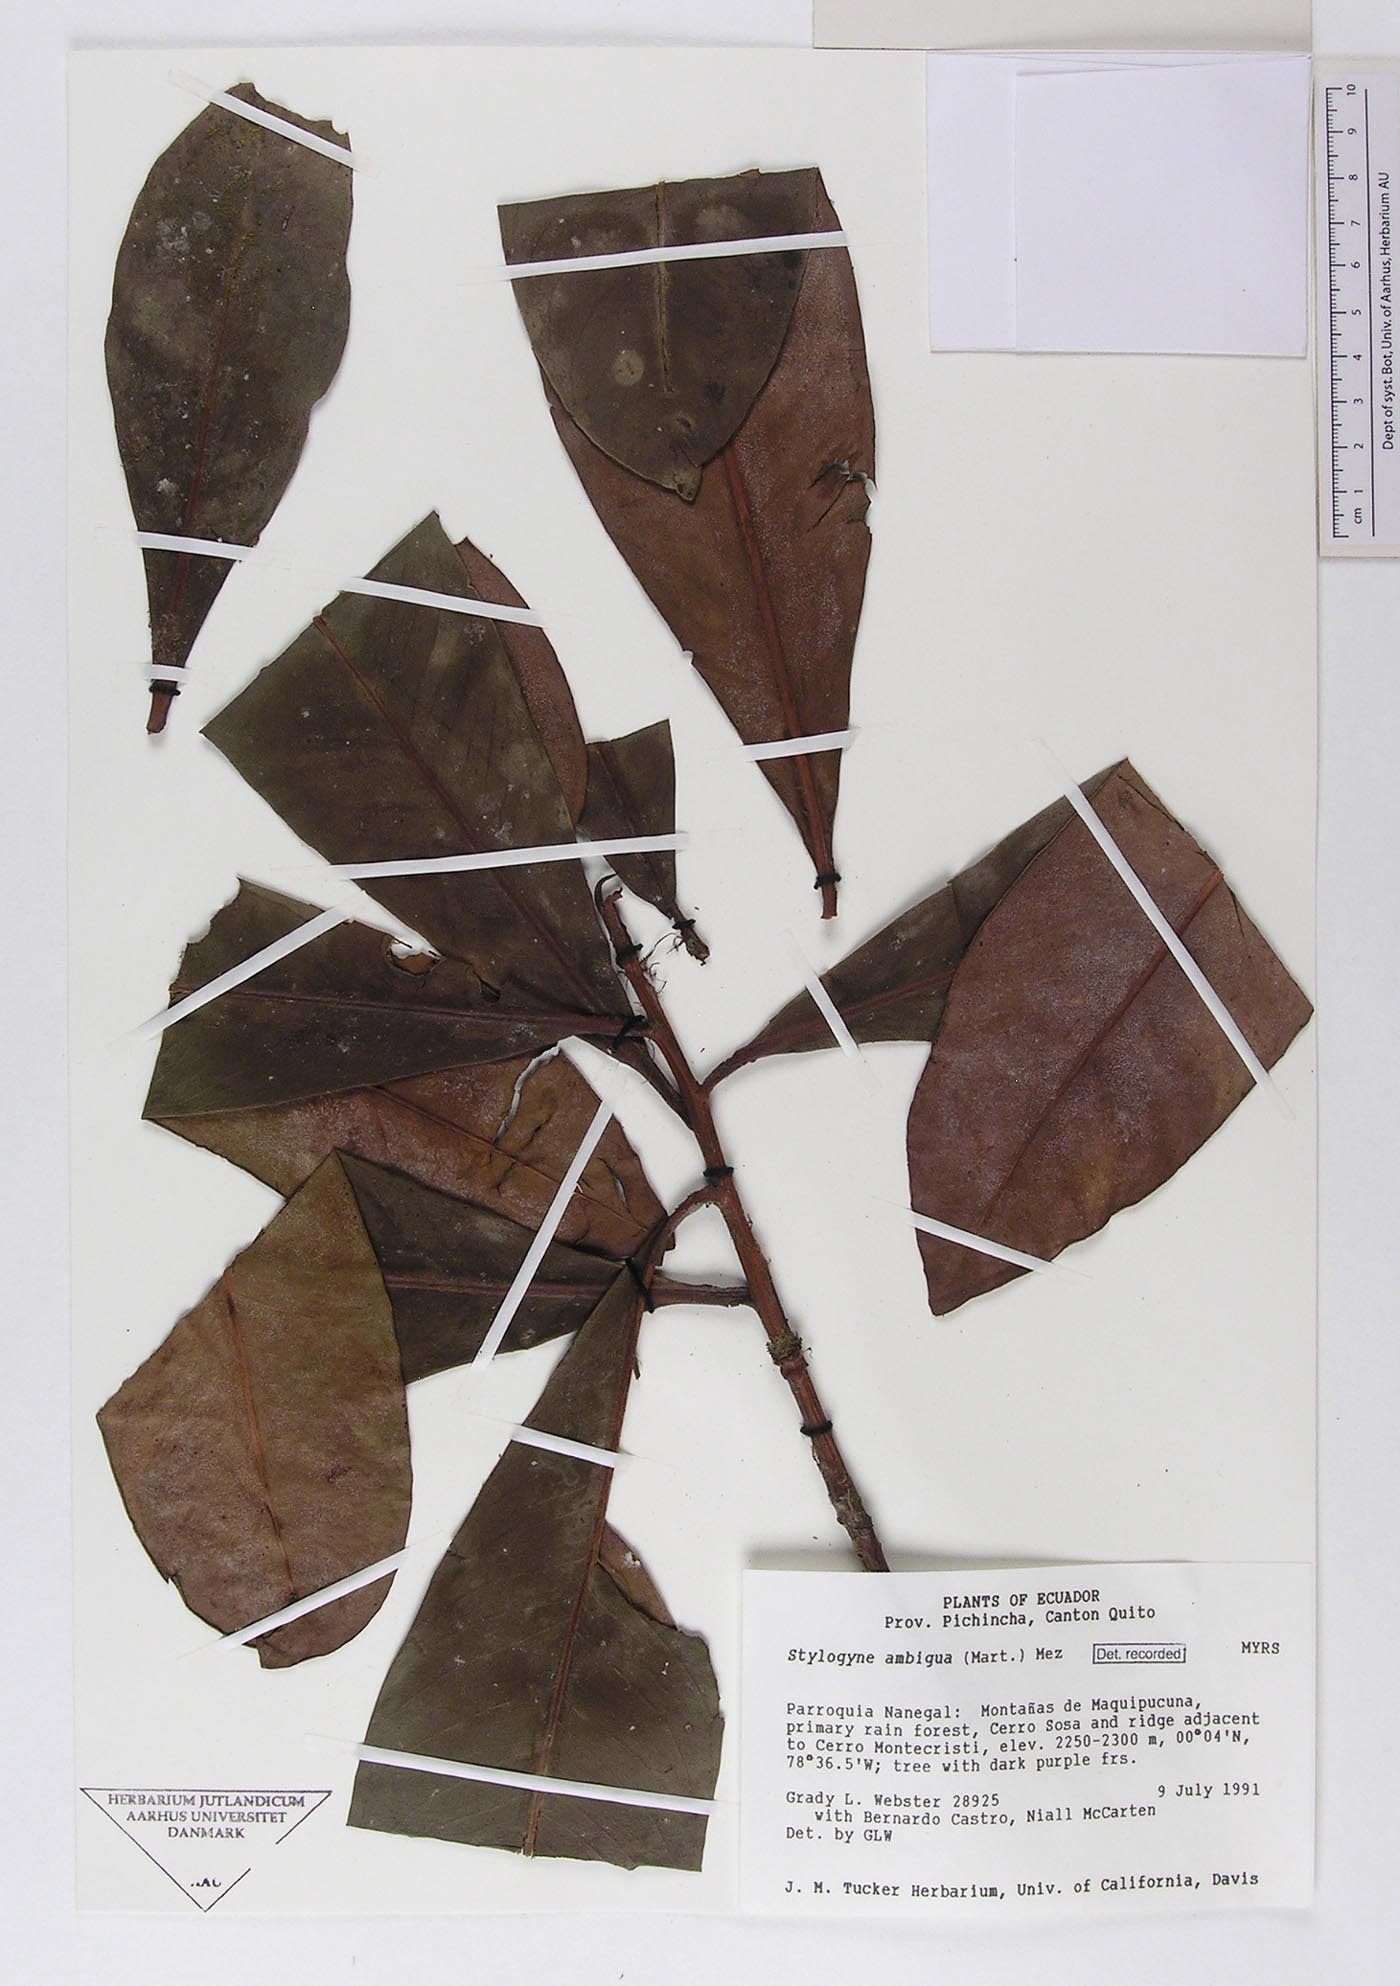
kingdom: Plantae
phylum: Tracheophyta
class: Magnoliopsida
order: Ericales
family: Primulaceae
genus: Geissanthus
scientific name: Geissanthus ambigua
